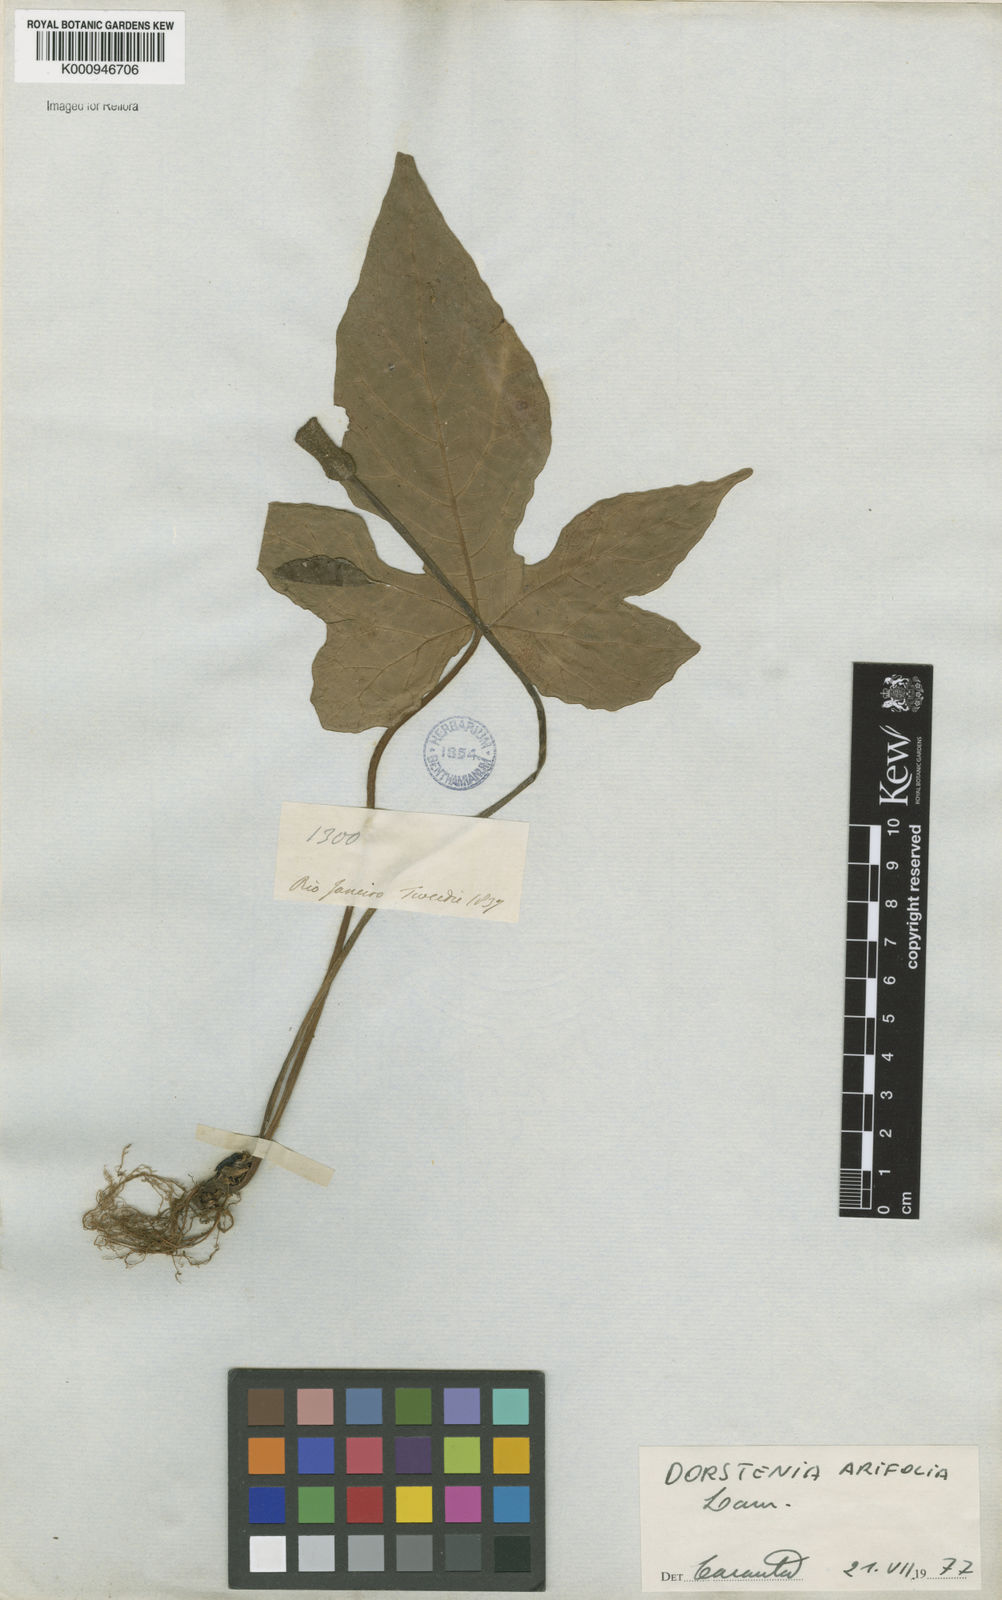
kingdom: Plantae
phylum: Tracheophyta
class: Magnoliopsida
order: Rosales
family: Moraceae
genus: Dorstenia
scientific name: Dorstenia arifolia
